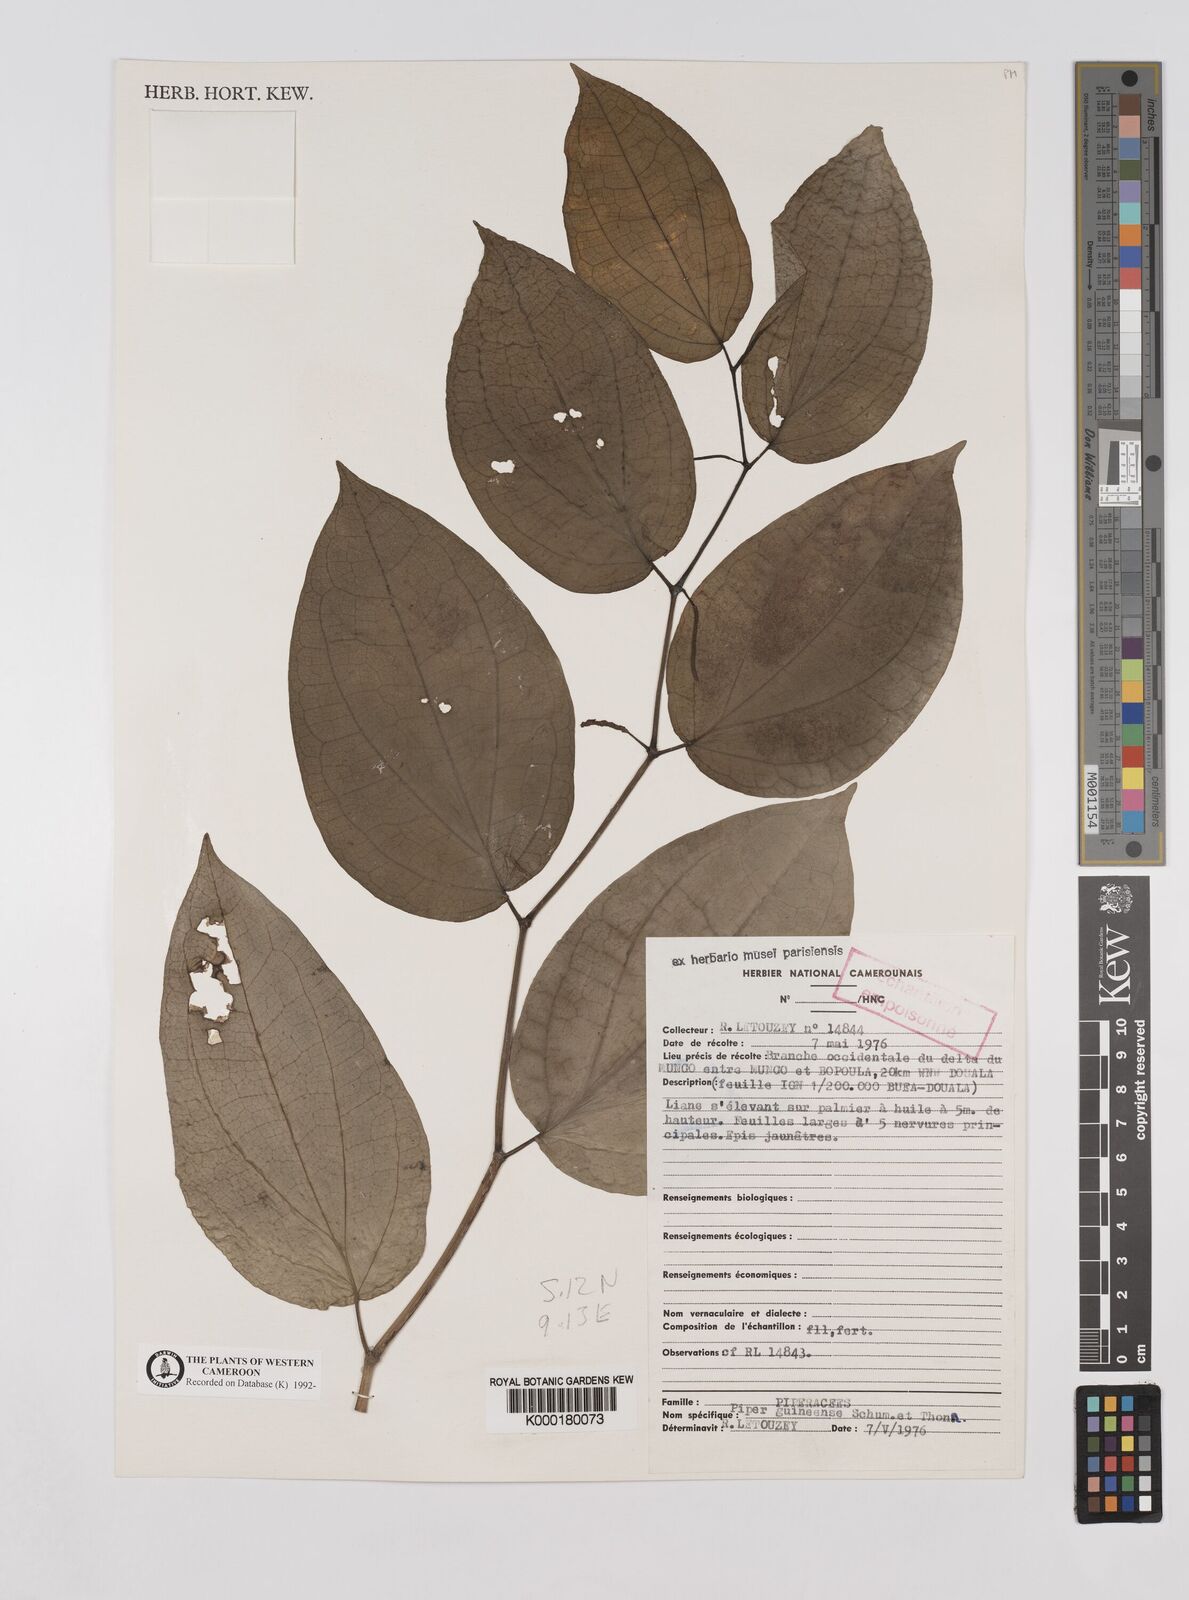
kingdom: Plantae
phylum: Tracheophyta
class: Magnoliopsida
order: Piperales
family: Piperaceae
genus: Piper
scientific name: Piper guineense
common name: Benin pepper
